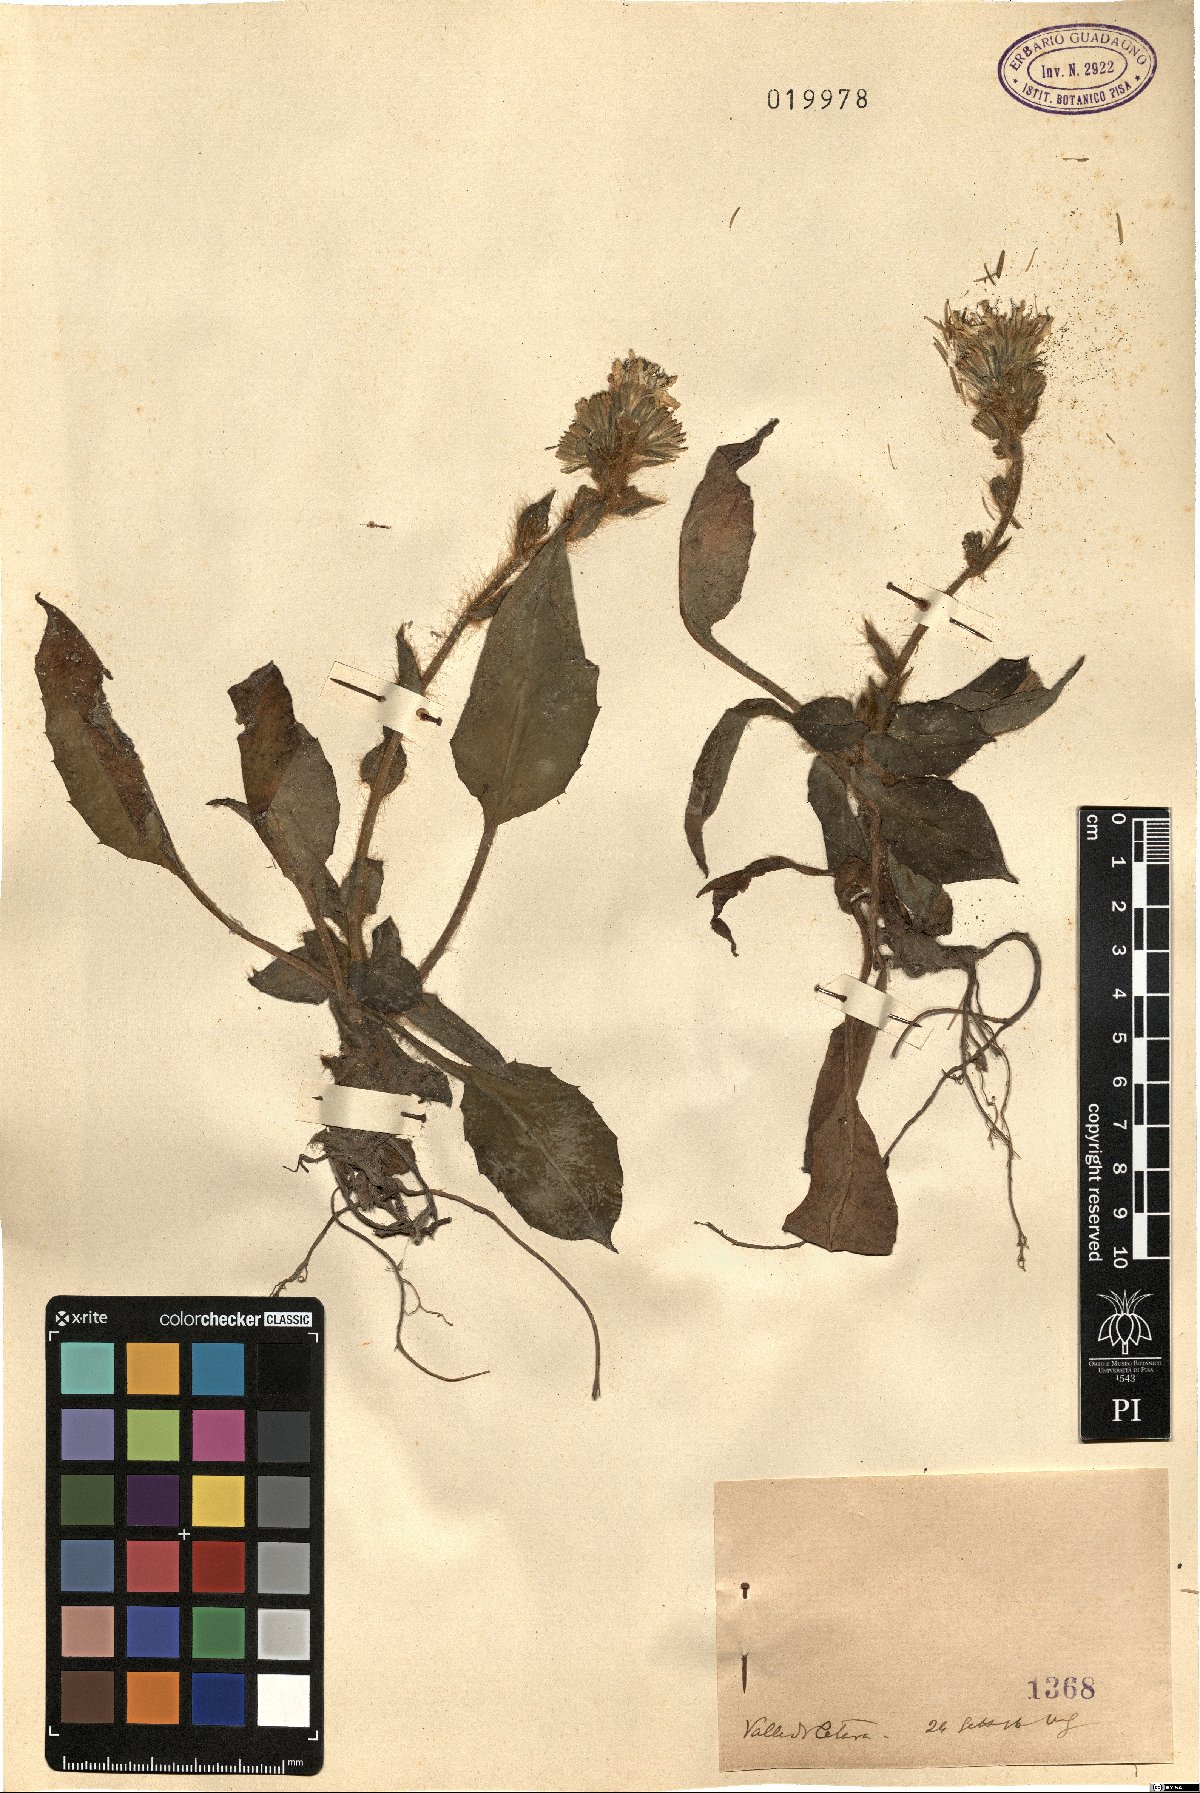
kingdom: Plantae
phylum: Tracheophyta
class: Magnoliopsida
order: Asterales
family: Asteraceae
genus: Hieracium
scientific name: Hieracium
